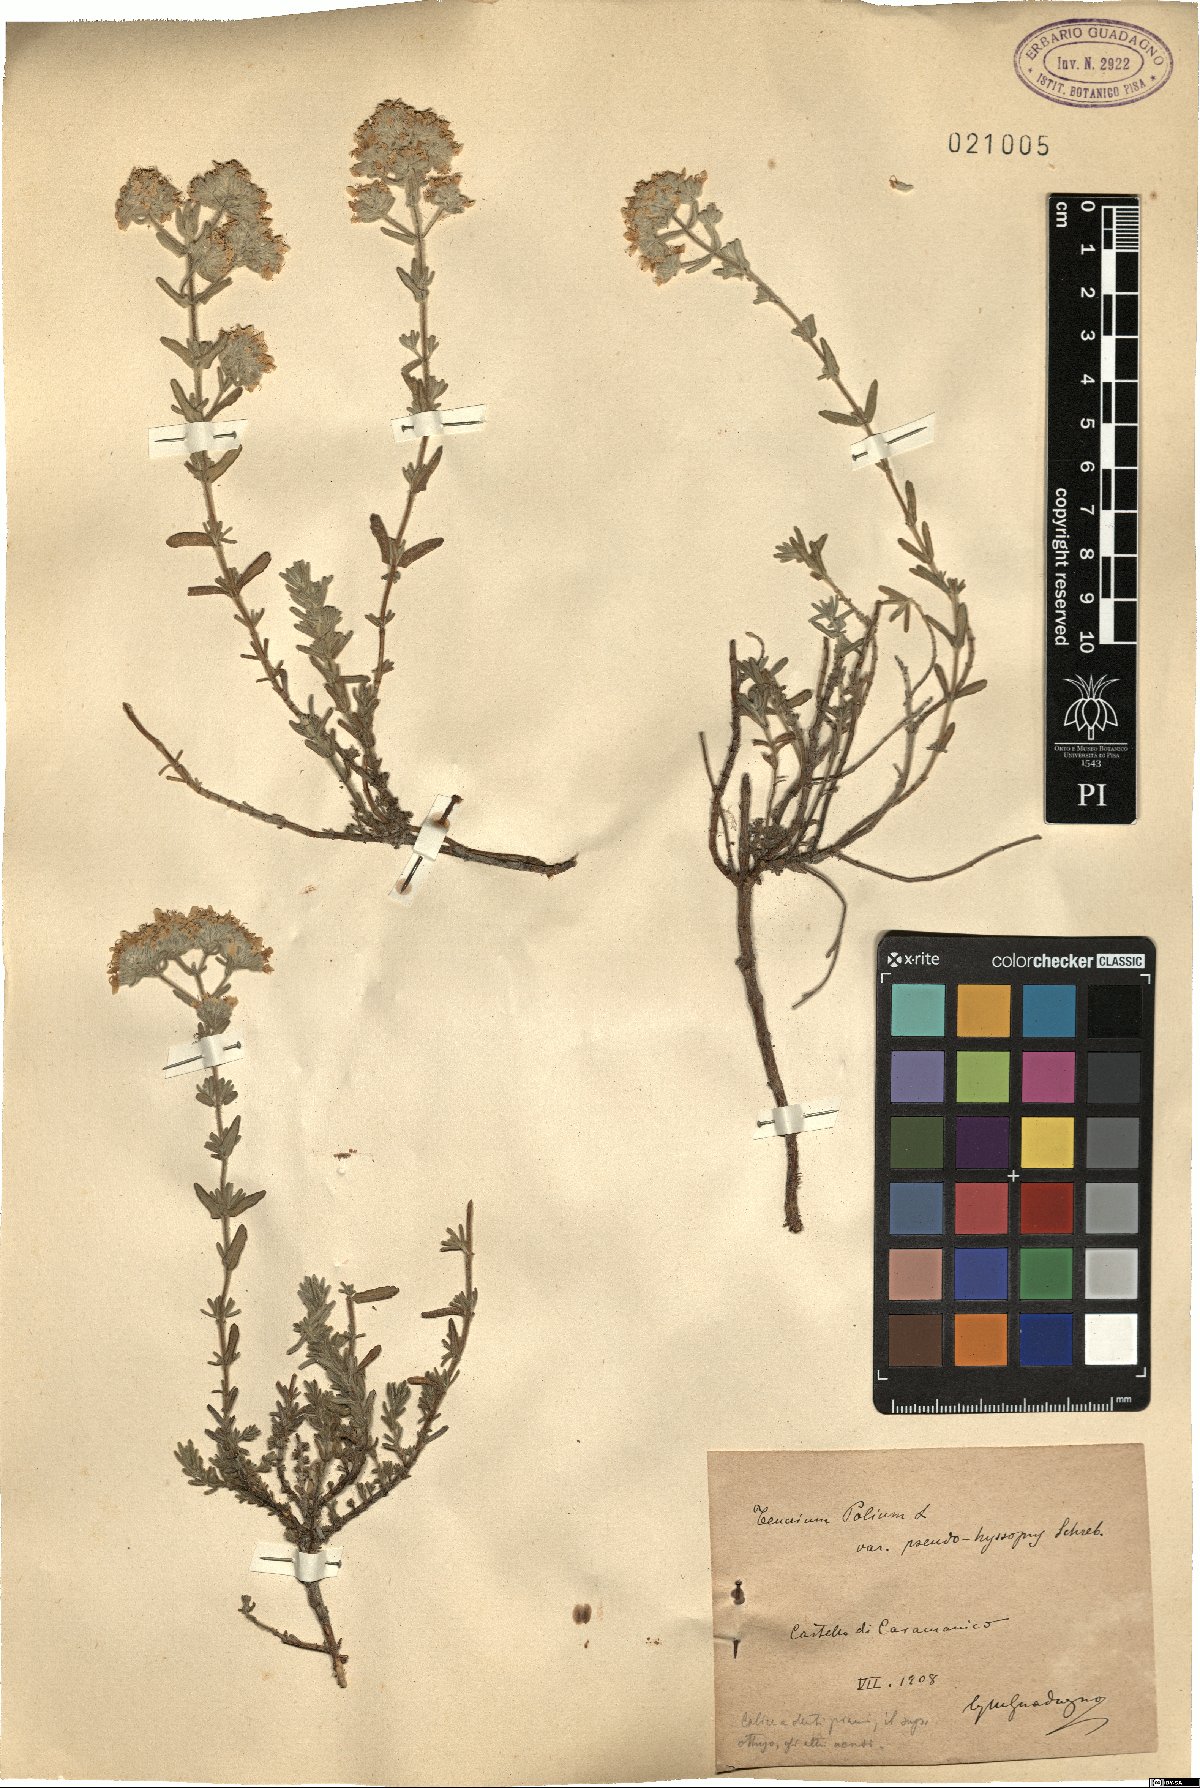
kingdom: Plantae
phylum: Tracheophyta
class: Magnoliopsida
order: Lamiales
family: Lamiaceae
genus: Teucrium
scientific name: Teucrium polium
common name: Poley
